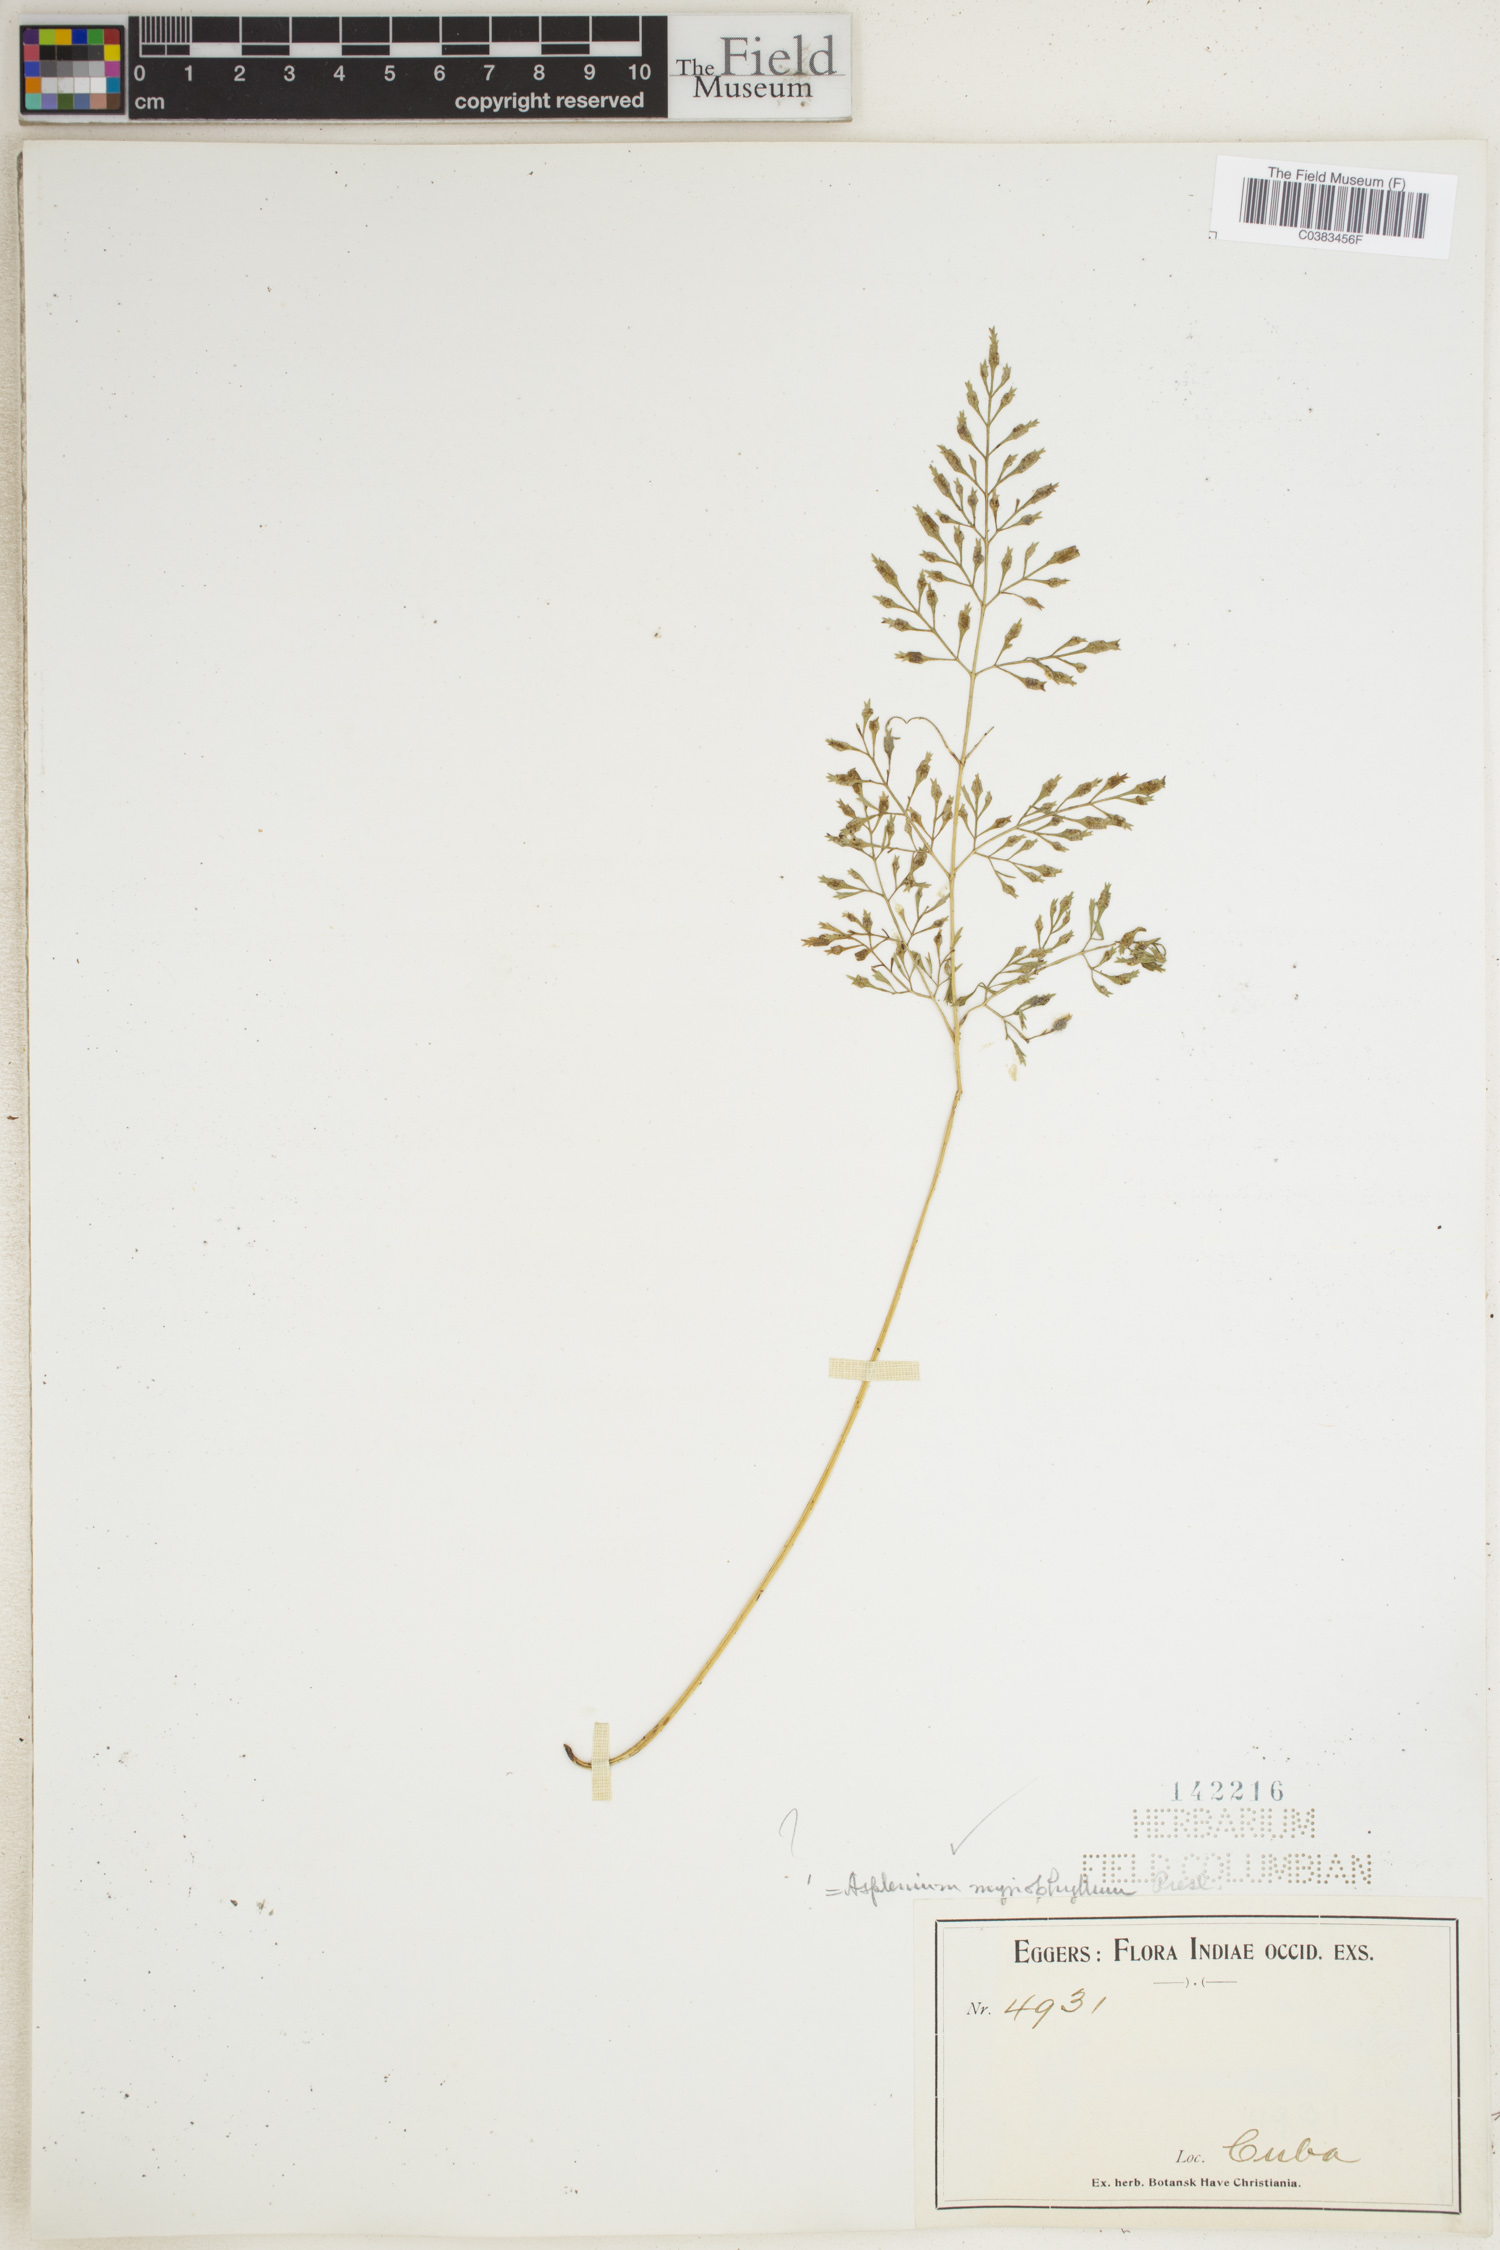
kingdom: Plantae
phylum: Tracheophyta
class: Polypodiopsida
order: Polypodiales
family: Aspleniaceae
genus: Asplenium
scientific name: Asplenium myriophyllum
